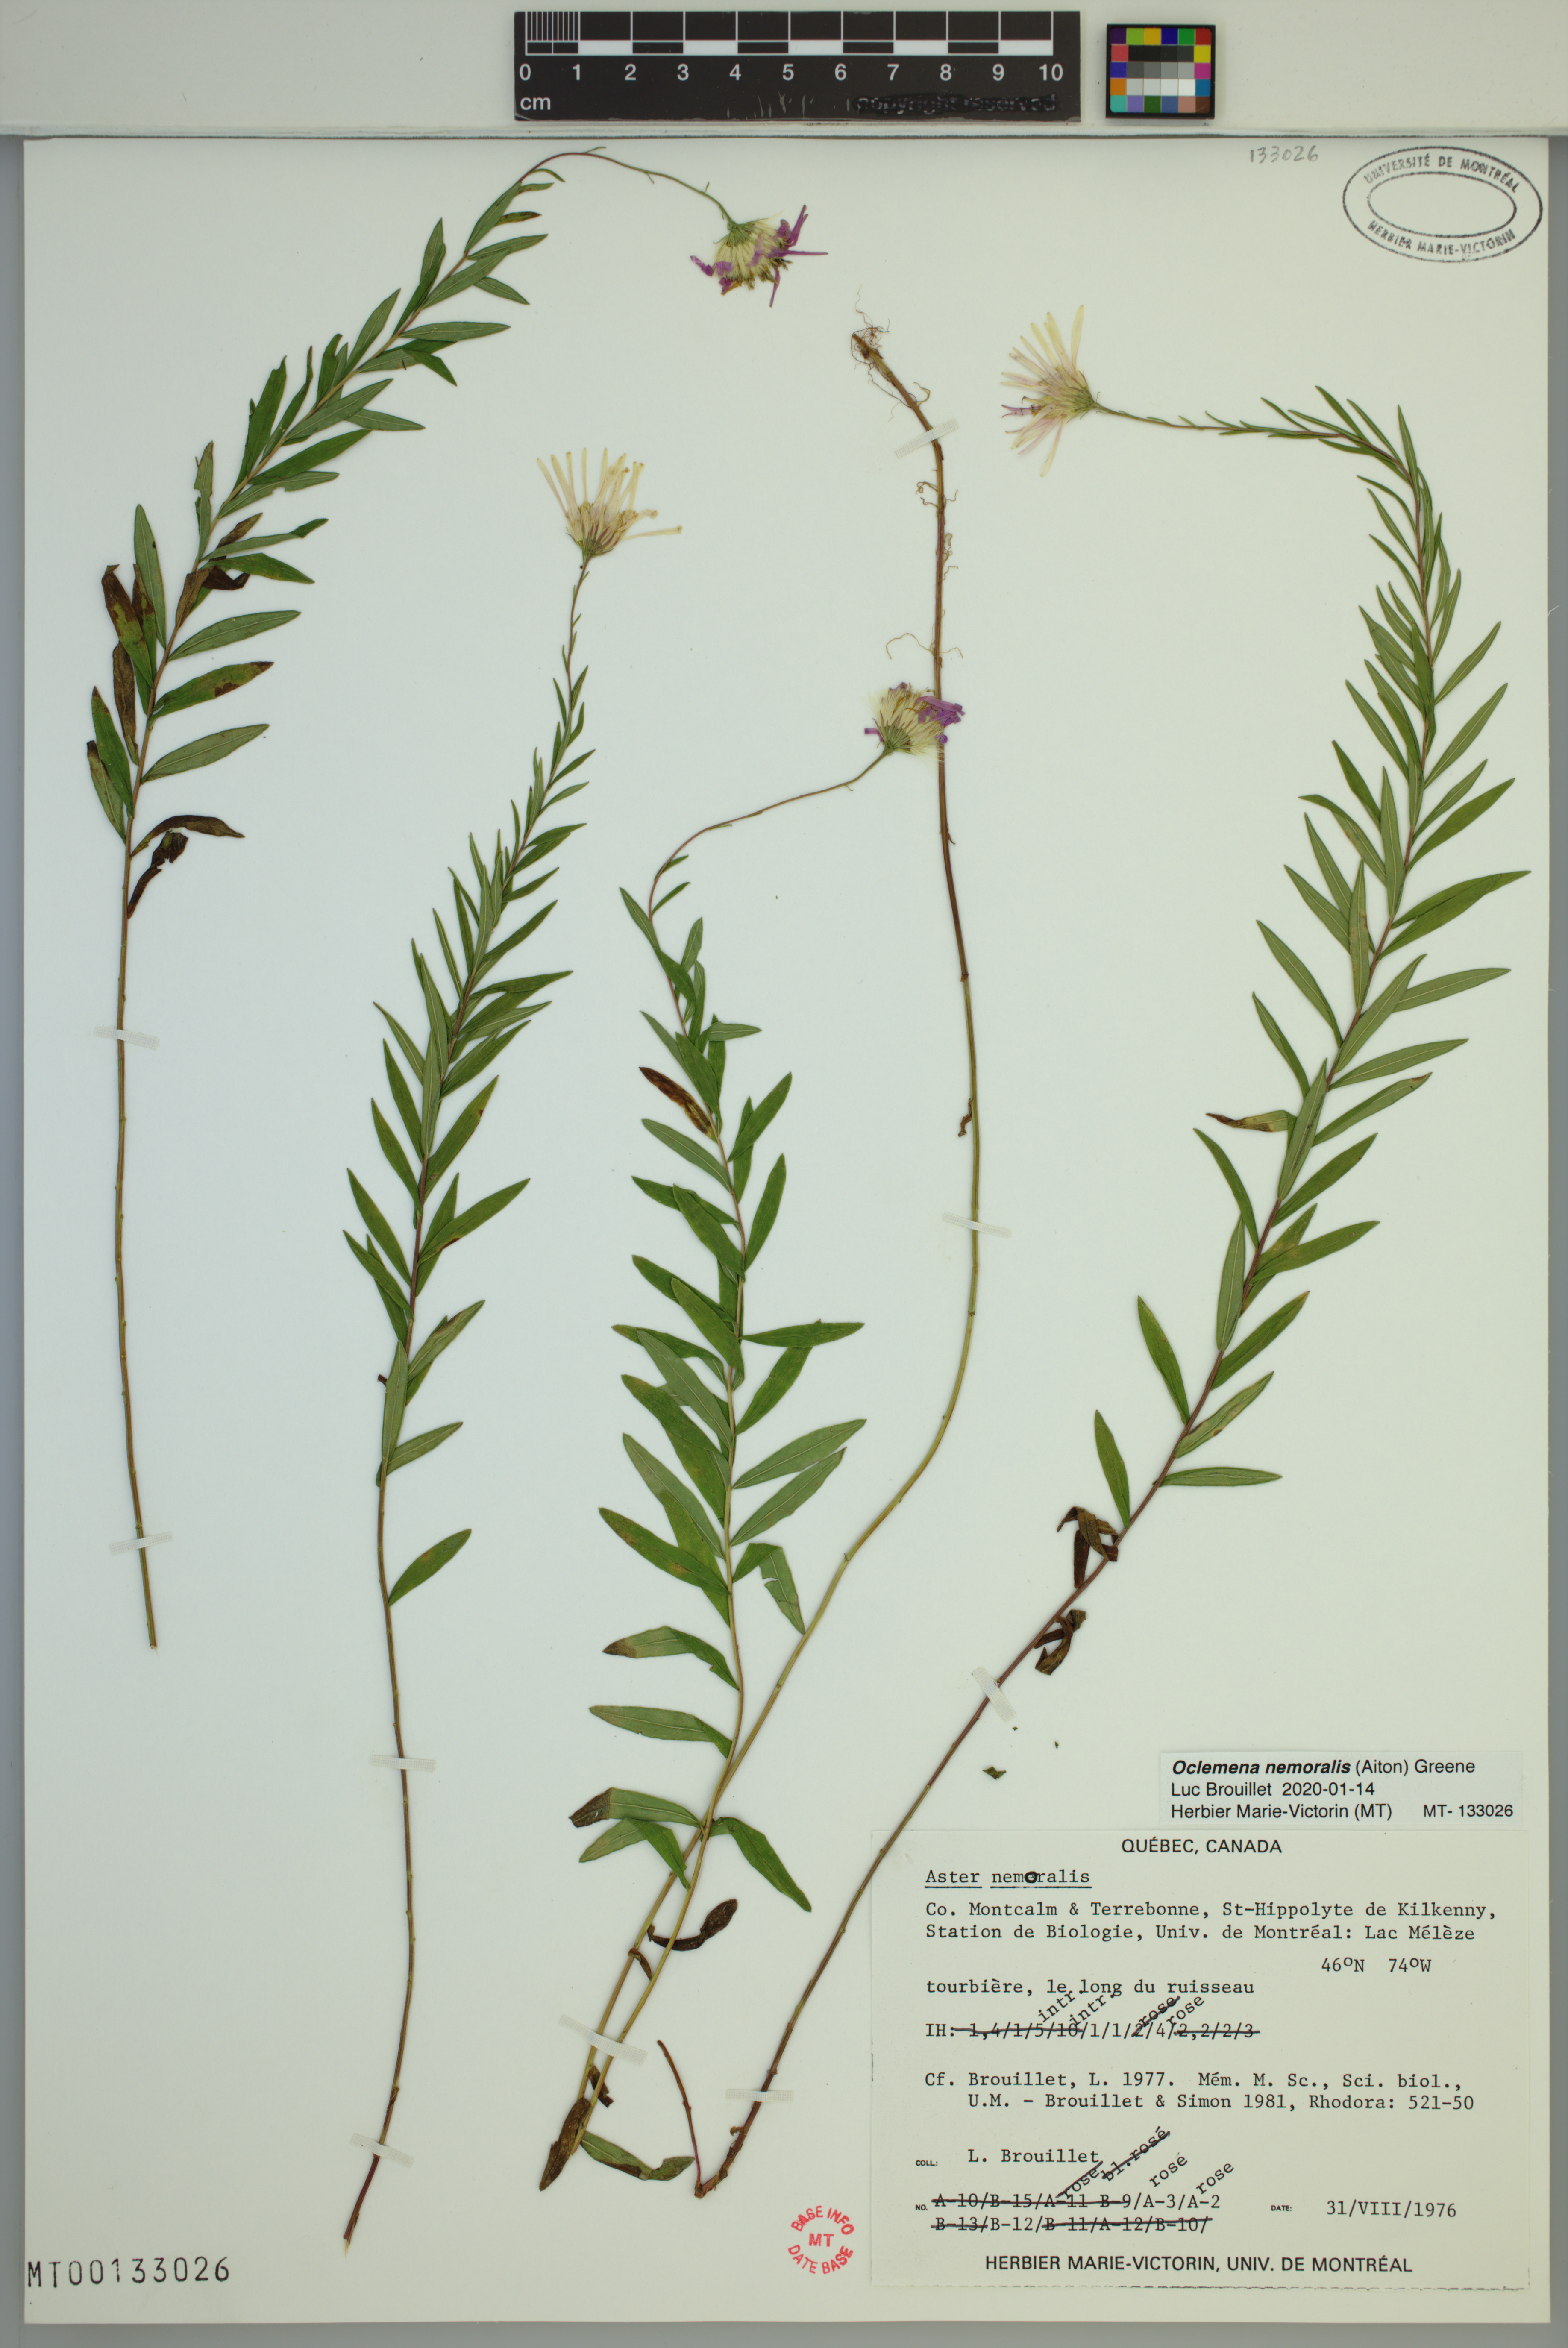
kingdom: Plantae
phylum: Tracheophyta
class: Magnoliopsida
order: Asterales
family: Asteraceae
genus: Oclemena
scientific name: Oclemena nemoralis
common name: Bog aster
